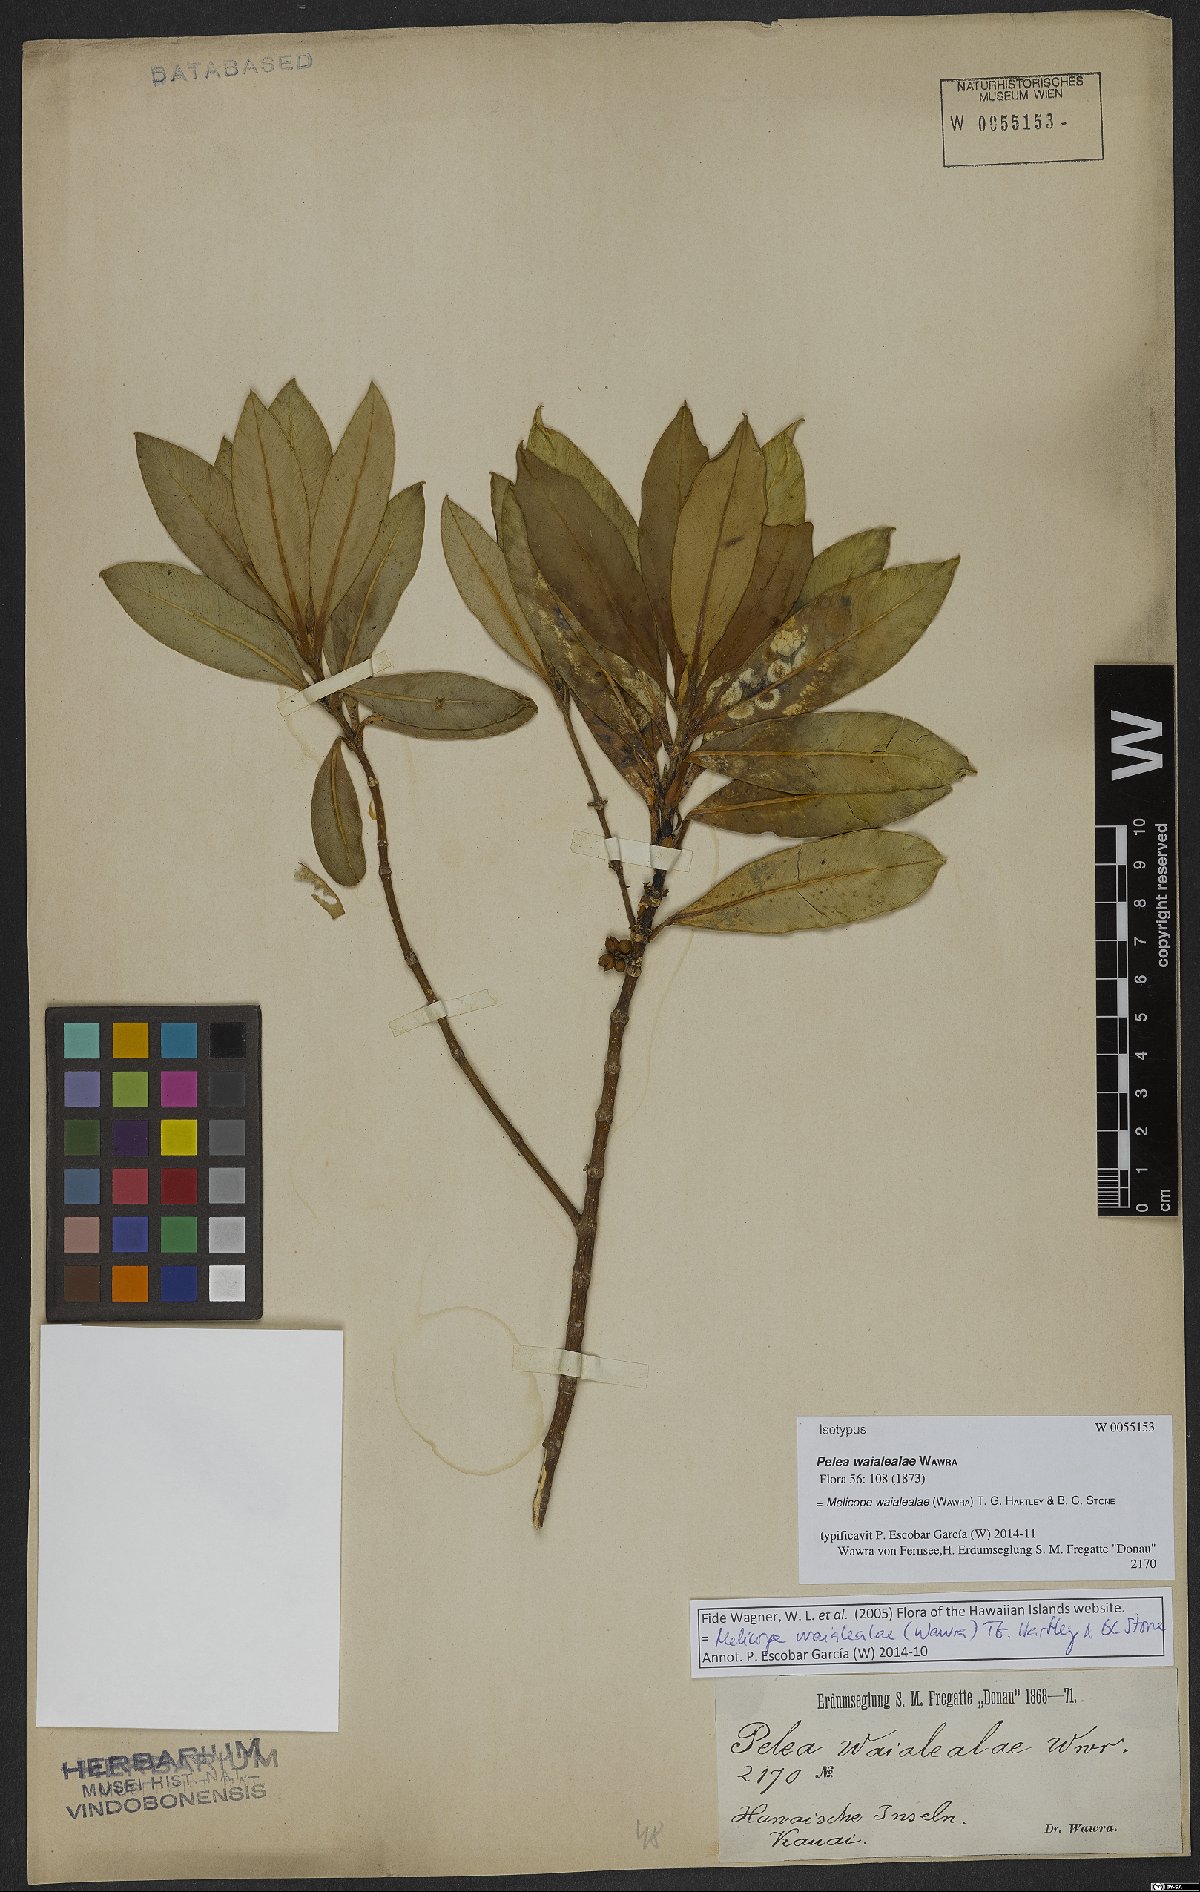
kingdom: Plantae
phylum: Tracheophyta
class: Magnoliopsida
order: Sapindales
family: Rutaceae
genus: Melicope
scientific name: Melicope waialealae
